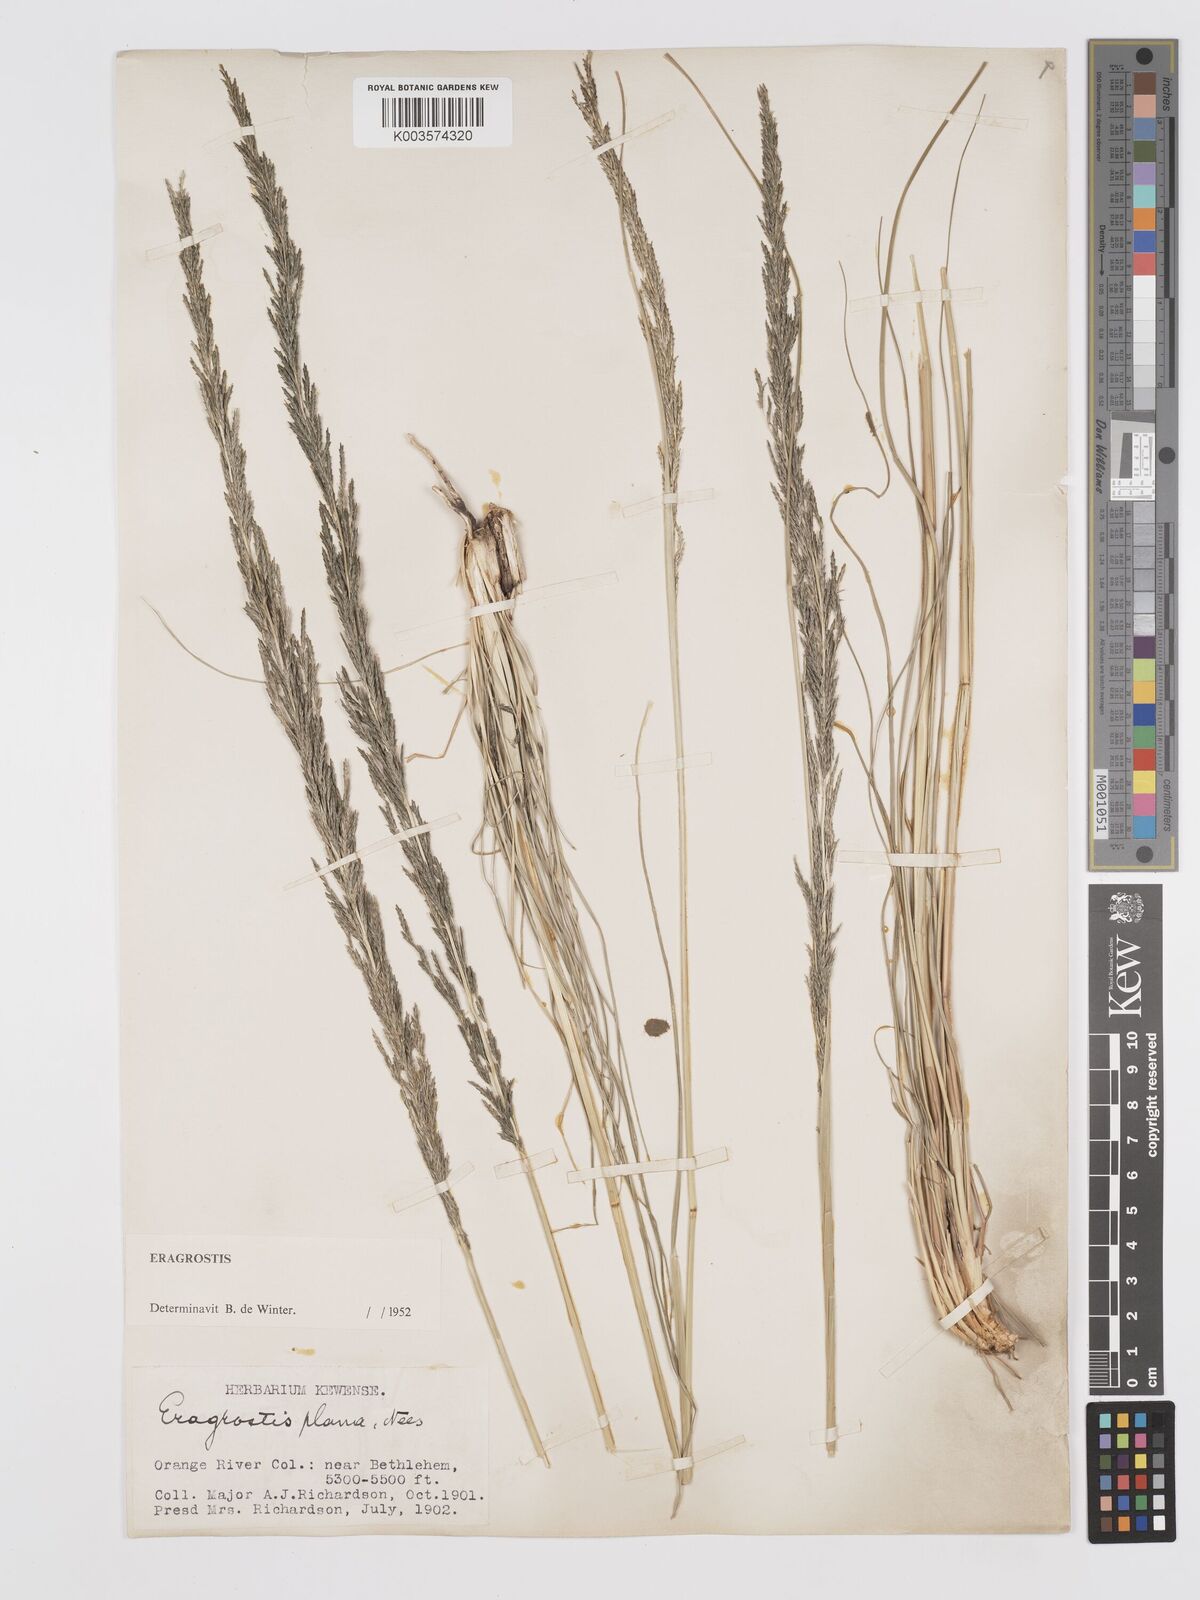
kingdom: Plantae
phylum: Tracheophyta
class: Liliopsida
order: Poales
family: Poaceae
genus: Eragrostis
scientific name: Eragrostis plana
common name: South african lovegrass
